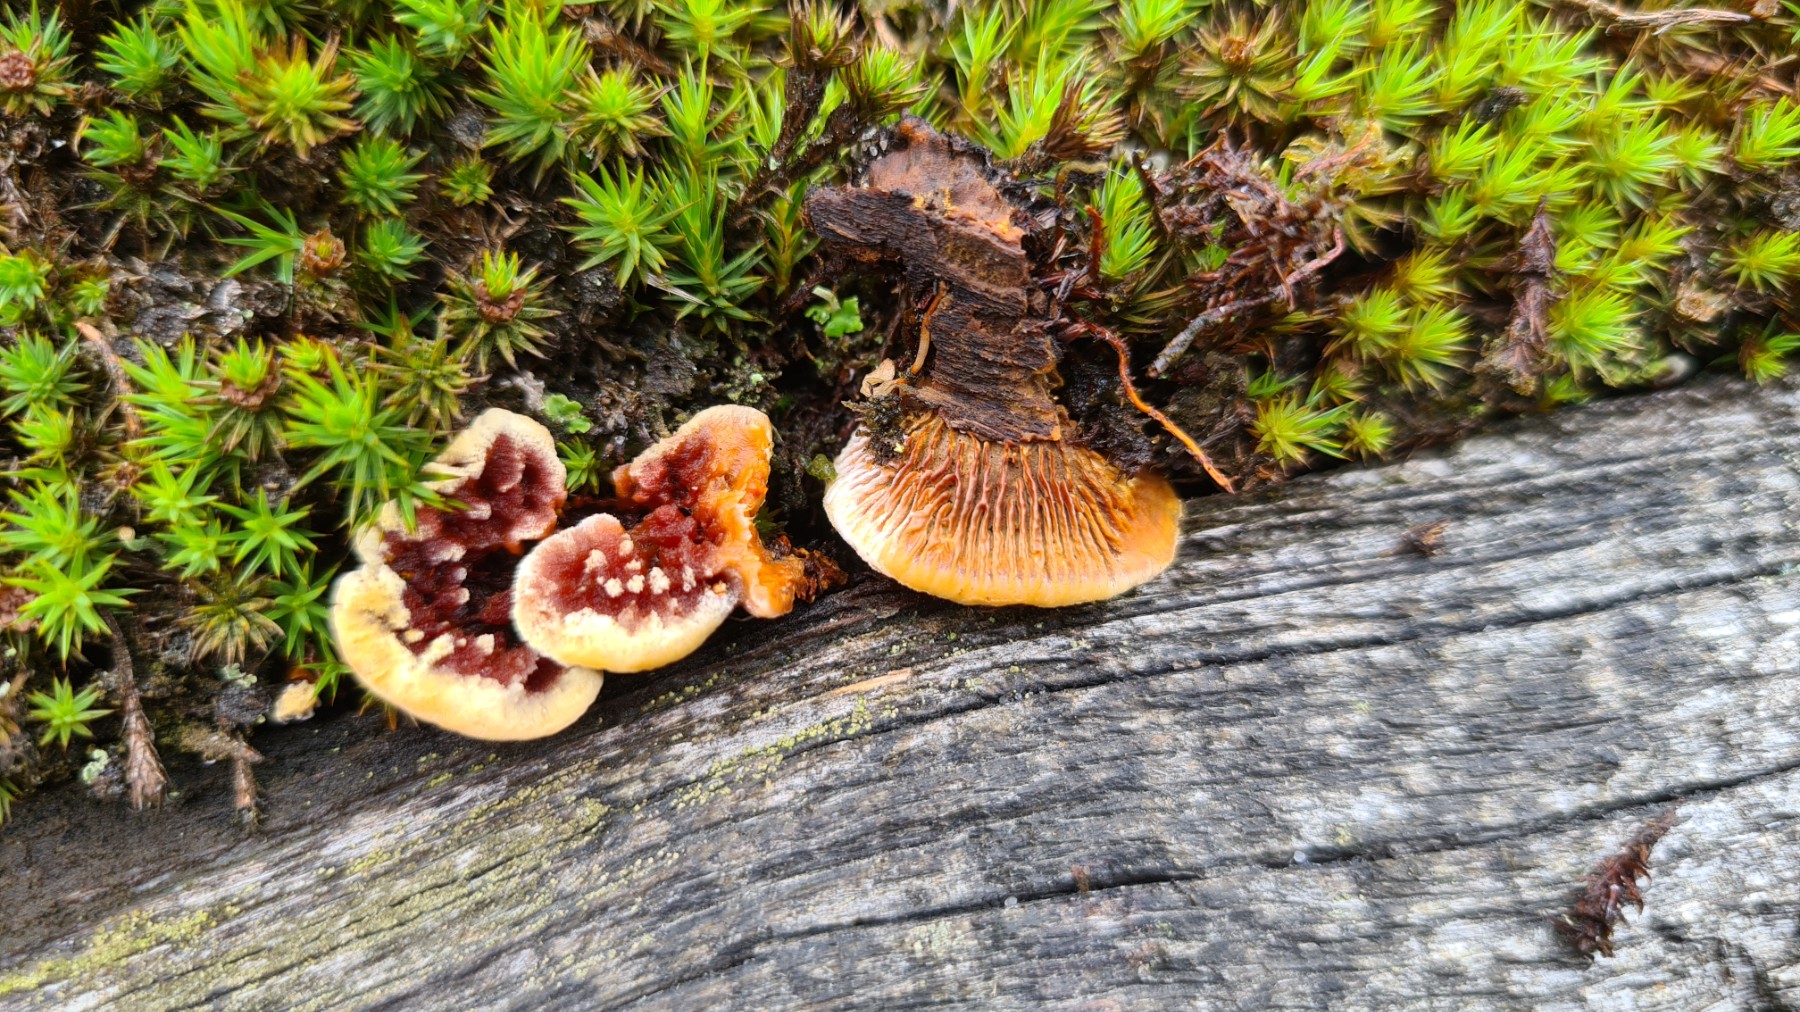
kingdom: Fungi
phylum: Basidiomycota
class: Agaricomycetes
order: Gloeophyllales
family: Gloeophyllaceae
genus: Gloeophyllum
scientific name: Gloeophyllum sepiarium
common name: fyrre-korkhat
